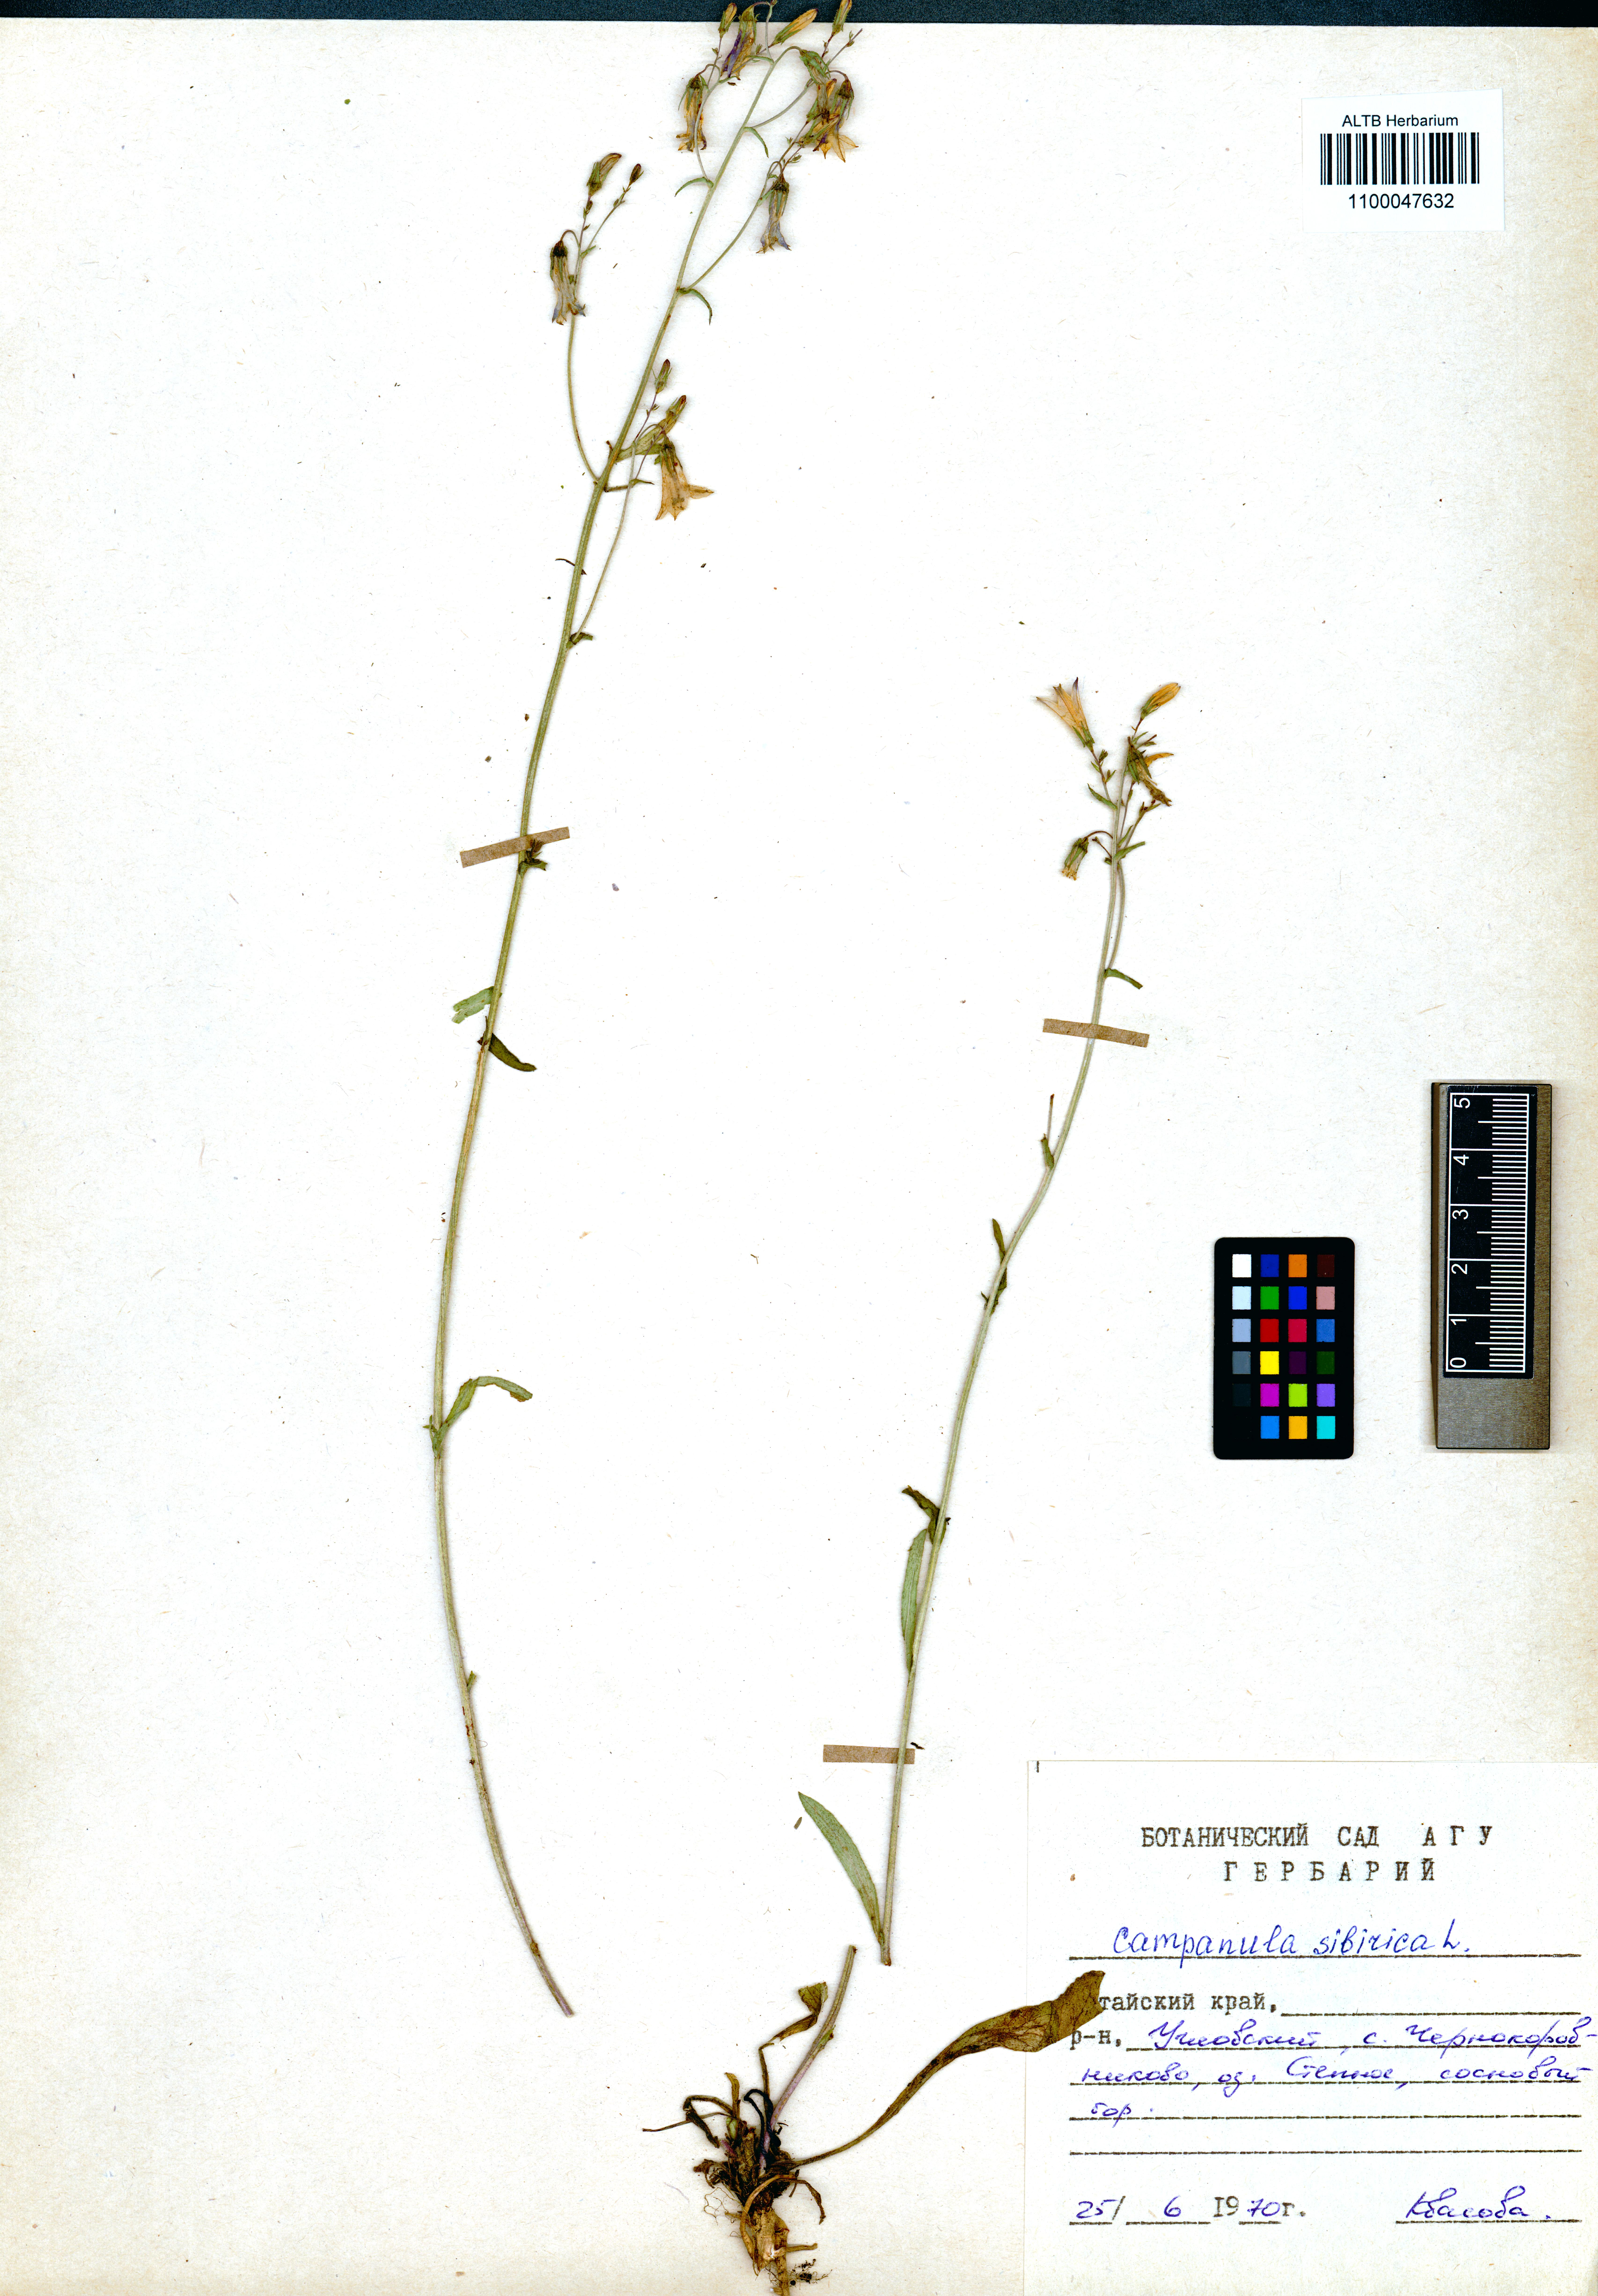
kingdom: Plantae
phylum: Tracheophyta
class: Magnoliopsida
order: Asterales
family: Campanulaceae
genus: Campanula
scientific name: Campanula sibirica
